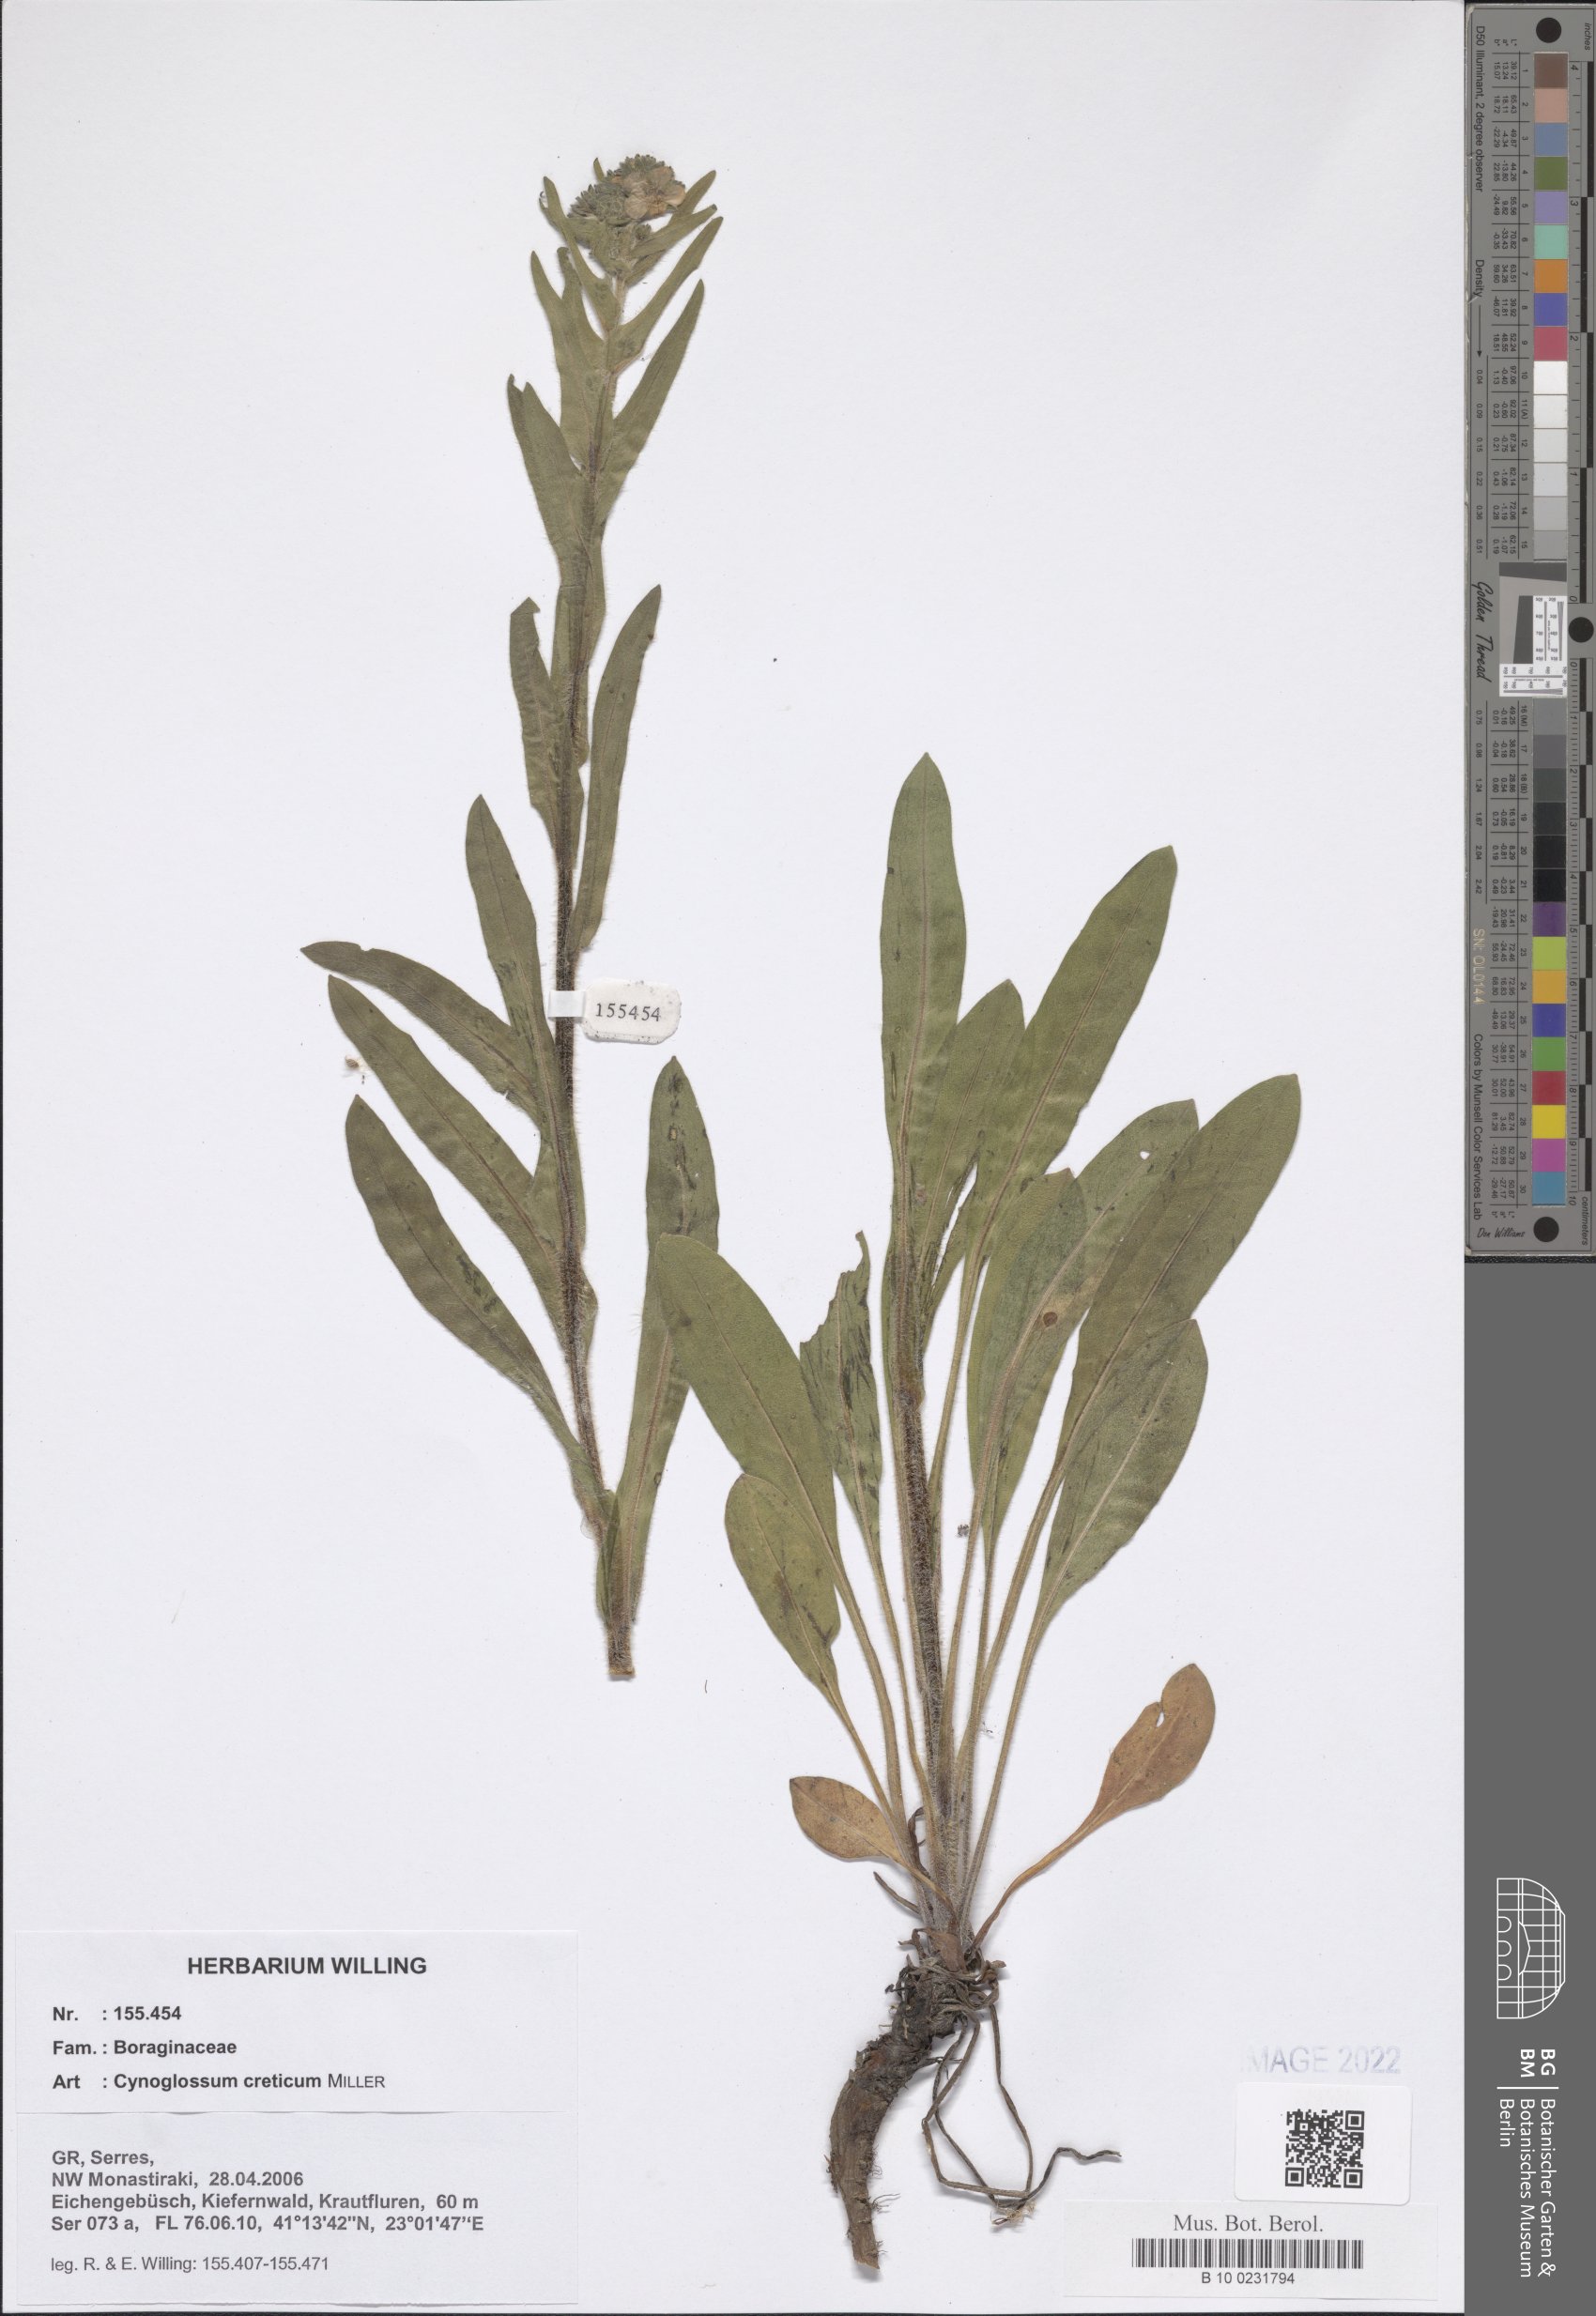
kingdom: Plantae
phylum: Tracheophyta
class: Magnoliopsida
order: Boraginales
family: Boraginaceae
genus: Cynoglossum
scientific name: Cynoglossum creticum
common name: Blue hound's tongue
